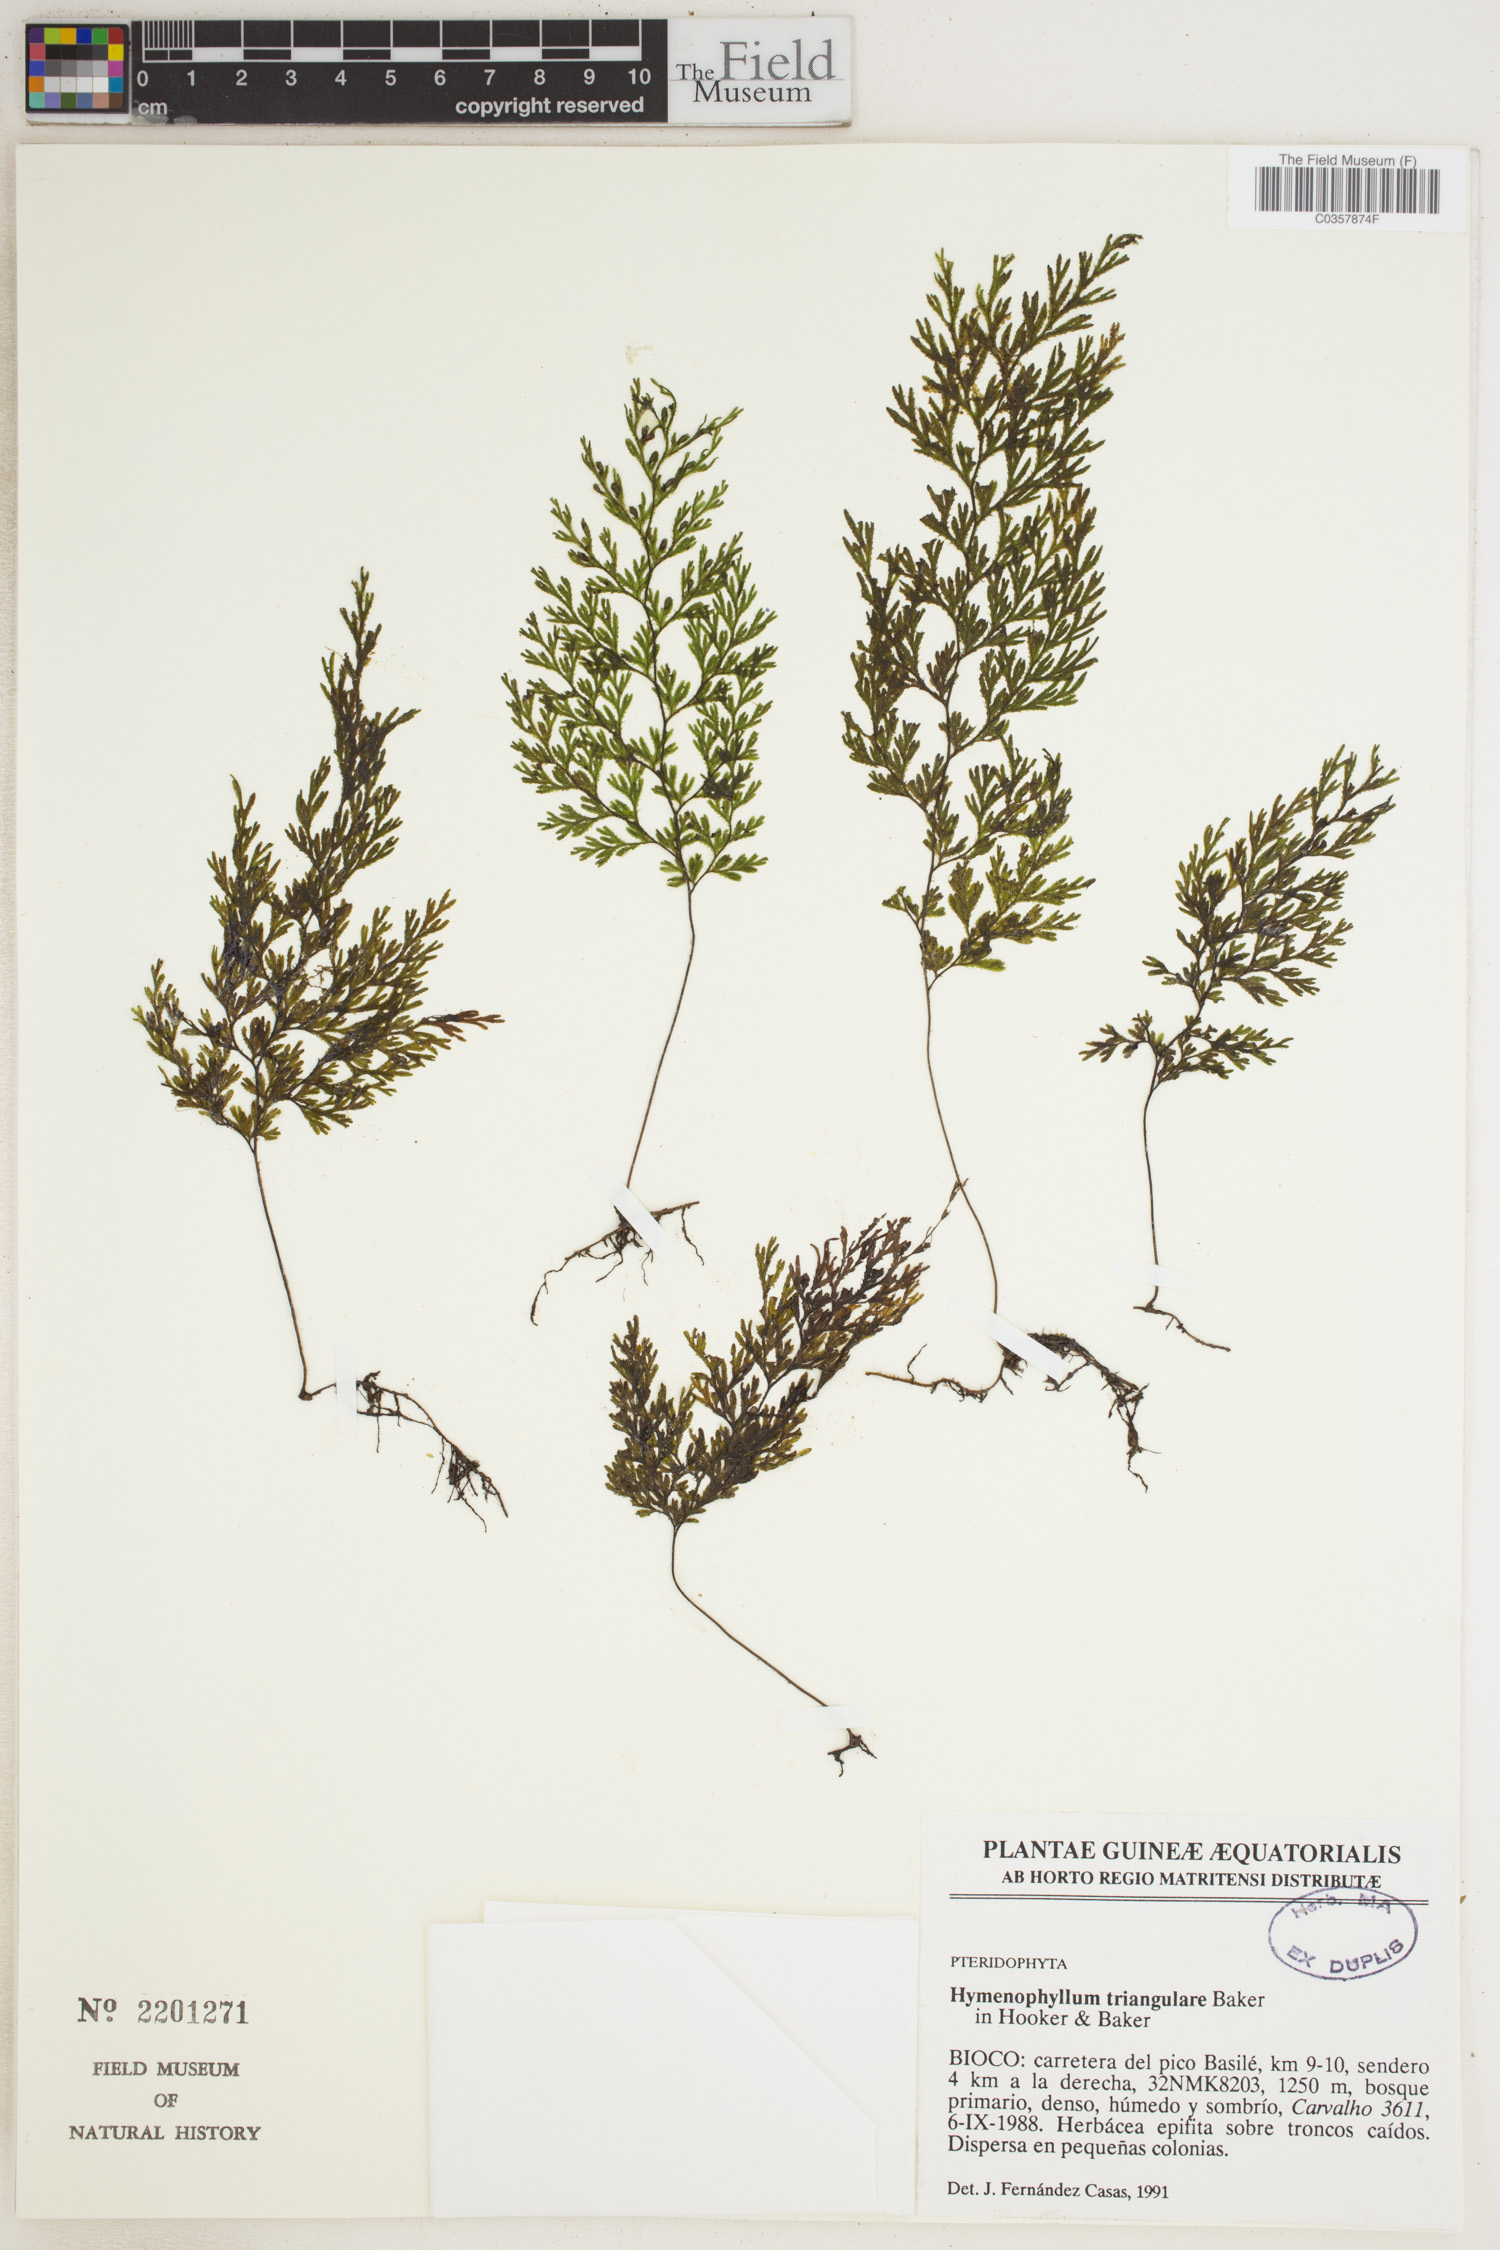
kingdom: Plantae
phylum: Tracheophyta
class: Polypodiopsida
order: Hymenophyllales
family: Hymenophyllaceae
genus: Hymenophyllum
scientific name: Hymenophyllum triangulare
